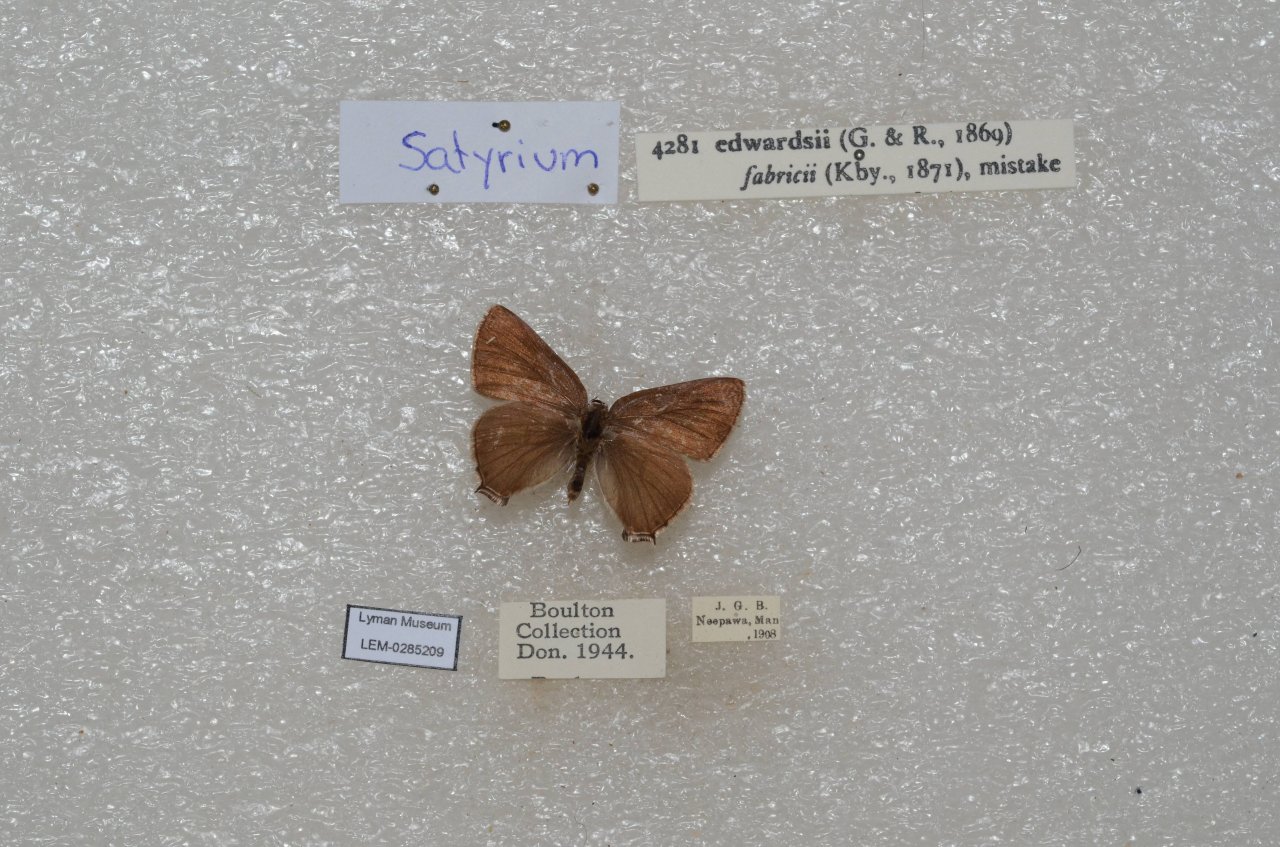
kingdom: Animalia
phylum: Arthropoda
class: Insecta
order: Lepidoptera
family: Lycaenidae
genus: Satyrium
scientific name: Satyrium edwardsii
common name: Edwards' Hairstreak
